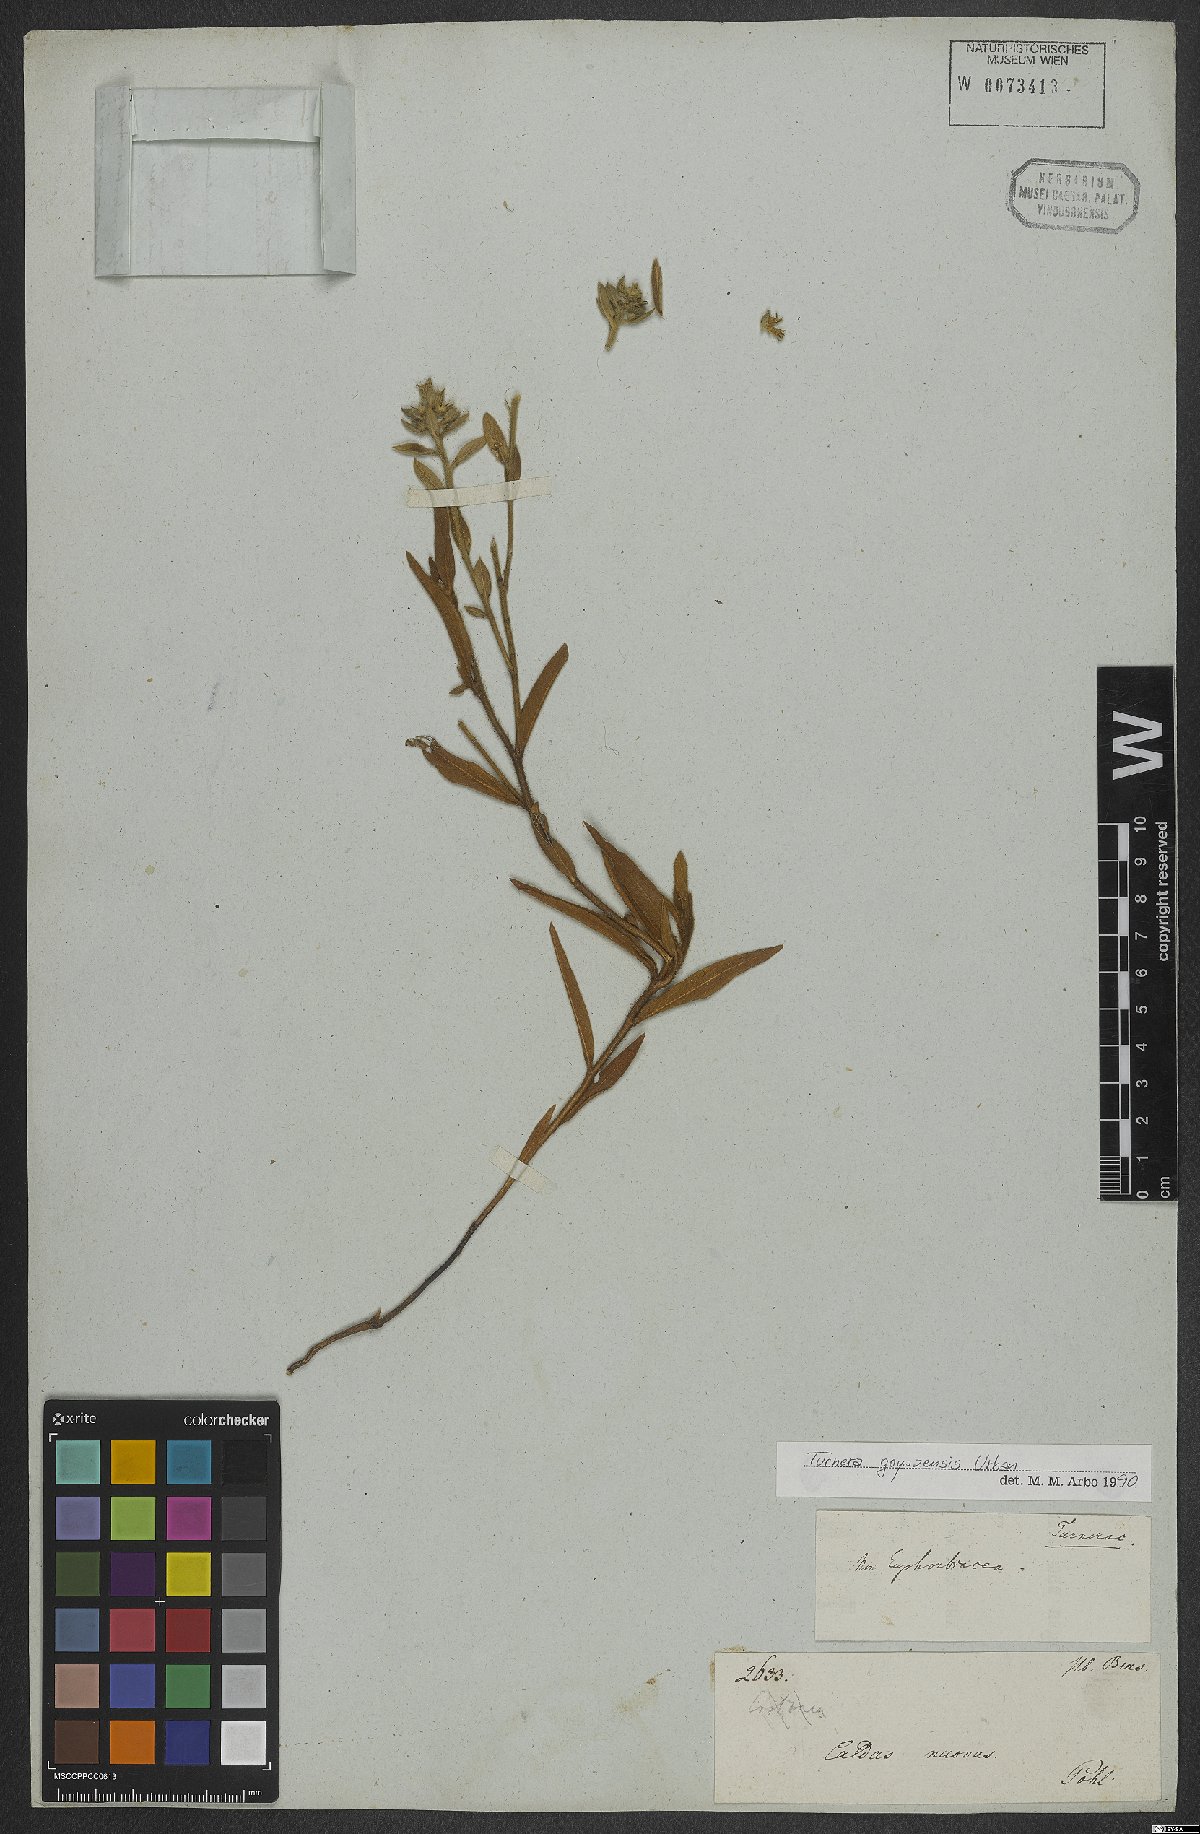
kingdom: Plantae
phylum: Tracheophyta
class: Magnoliopsida
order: Malpighiales
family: Turneraceae
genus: Turnera
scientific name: Turnera oblongifolia
